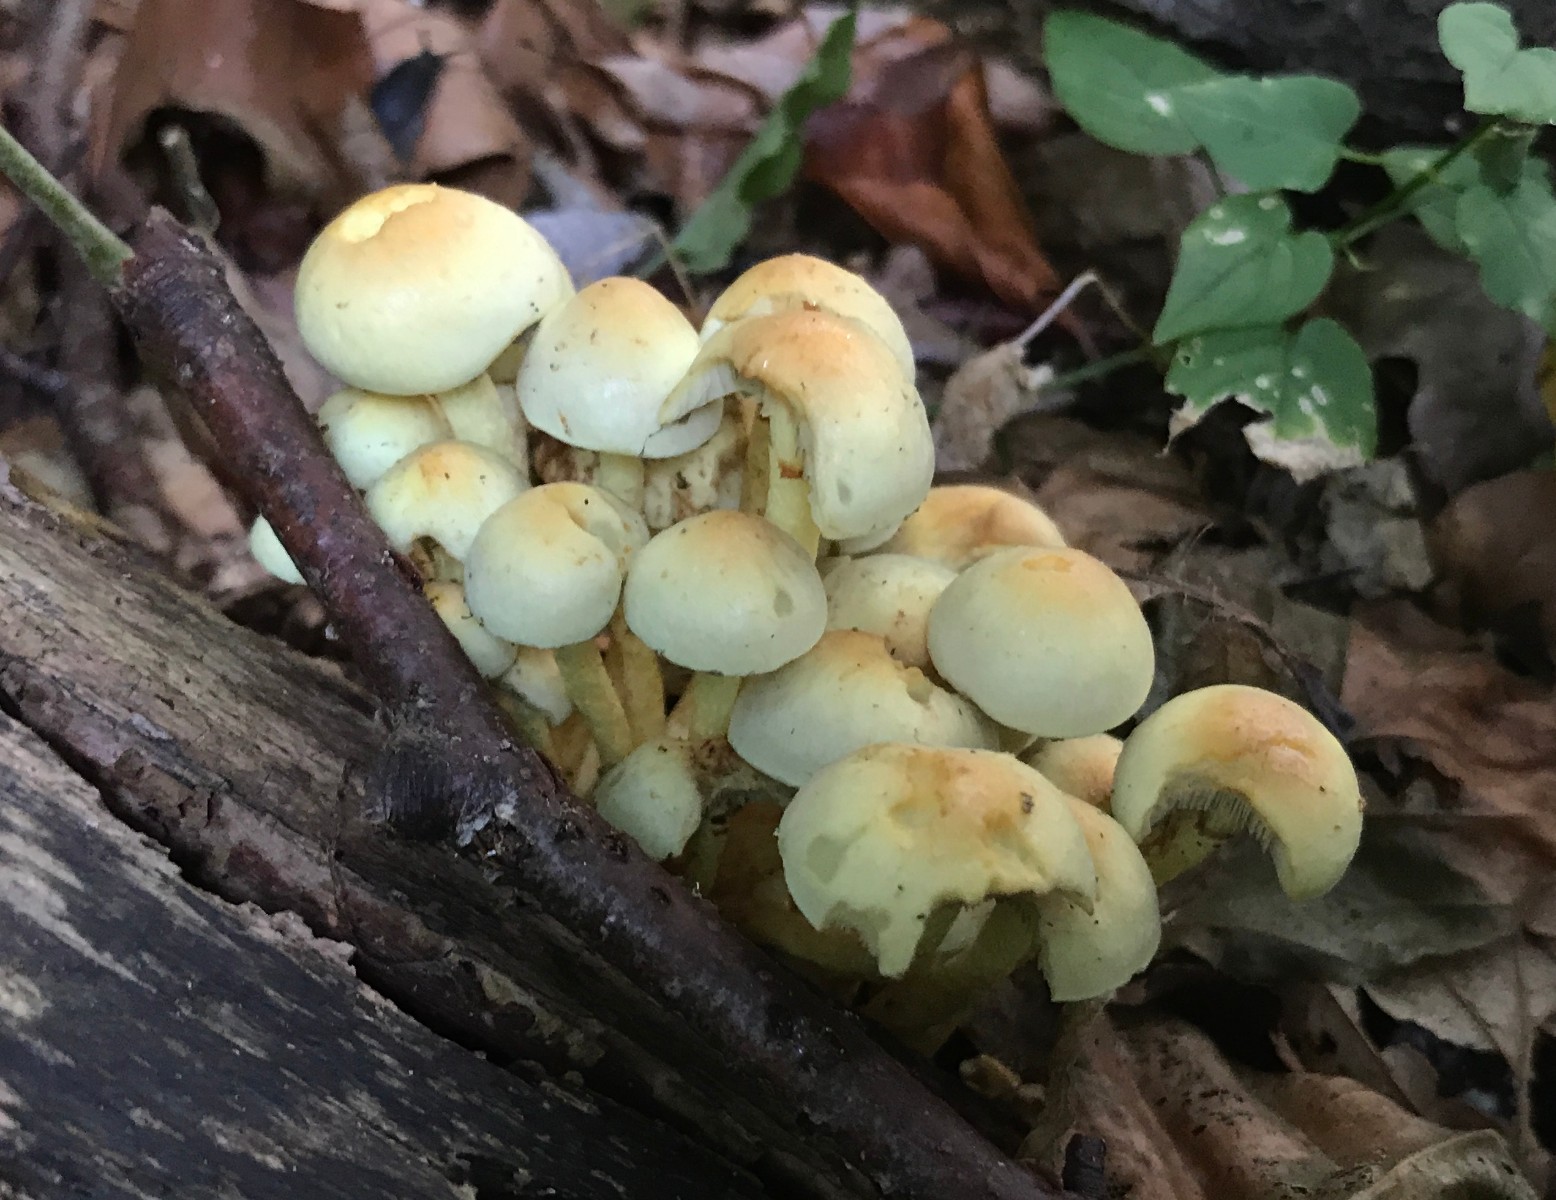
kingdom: Fungi
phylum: Basidiomycota
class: Agaricomycetes
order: Agaricales
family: Strophariaceae
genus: Hypholoma
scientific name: Hypholoma fasciculare
